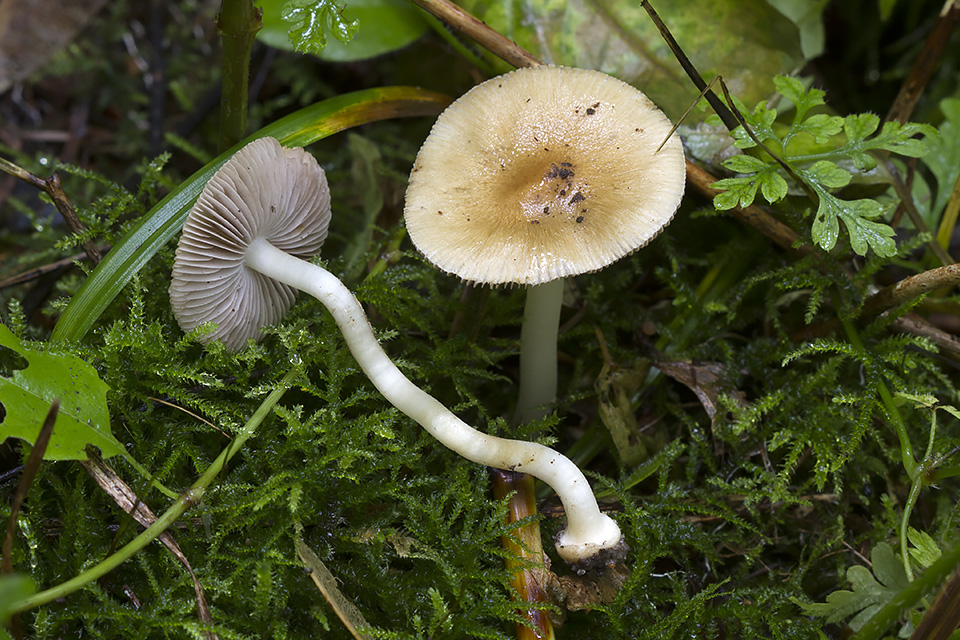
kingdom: Fungi
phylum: Basidiomycota
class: Agaricomycetes
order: Agaricales
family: Inocybaceae
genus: Inocybe
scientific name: Inocybe mixtilis
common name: randknoldet trævlhat
